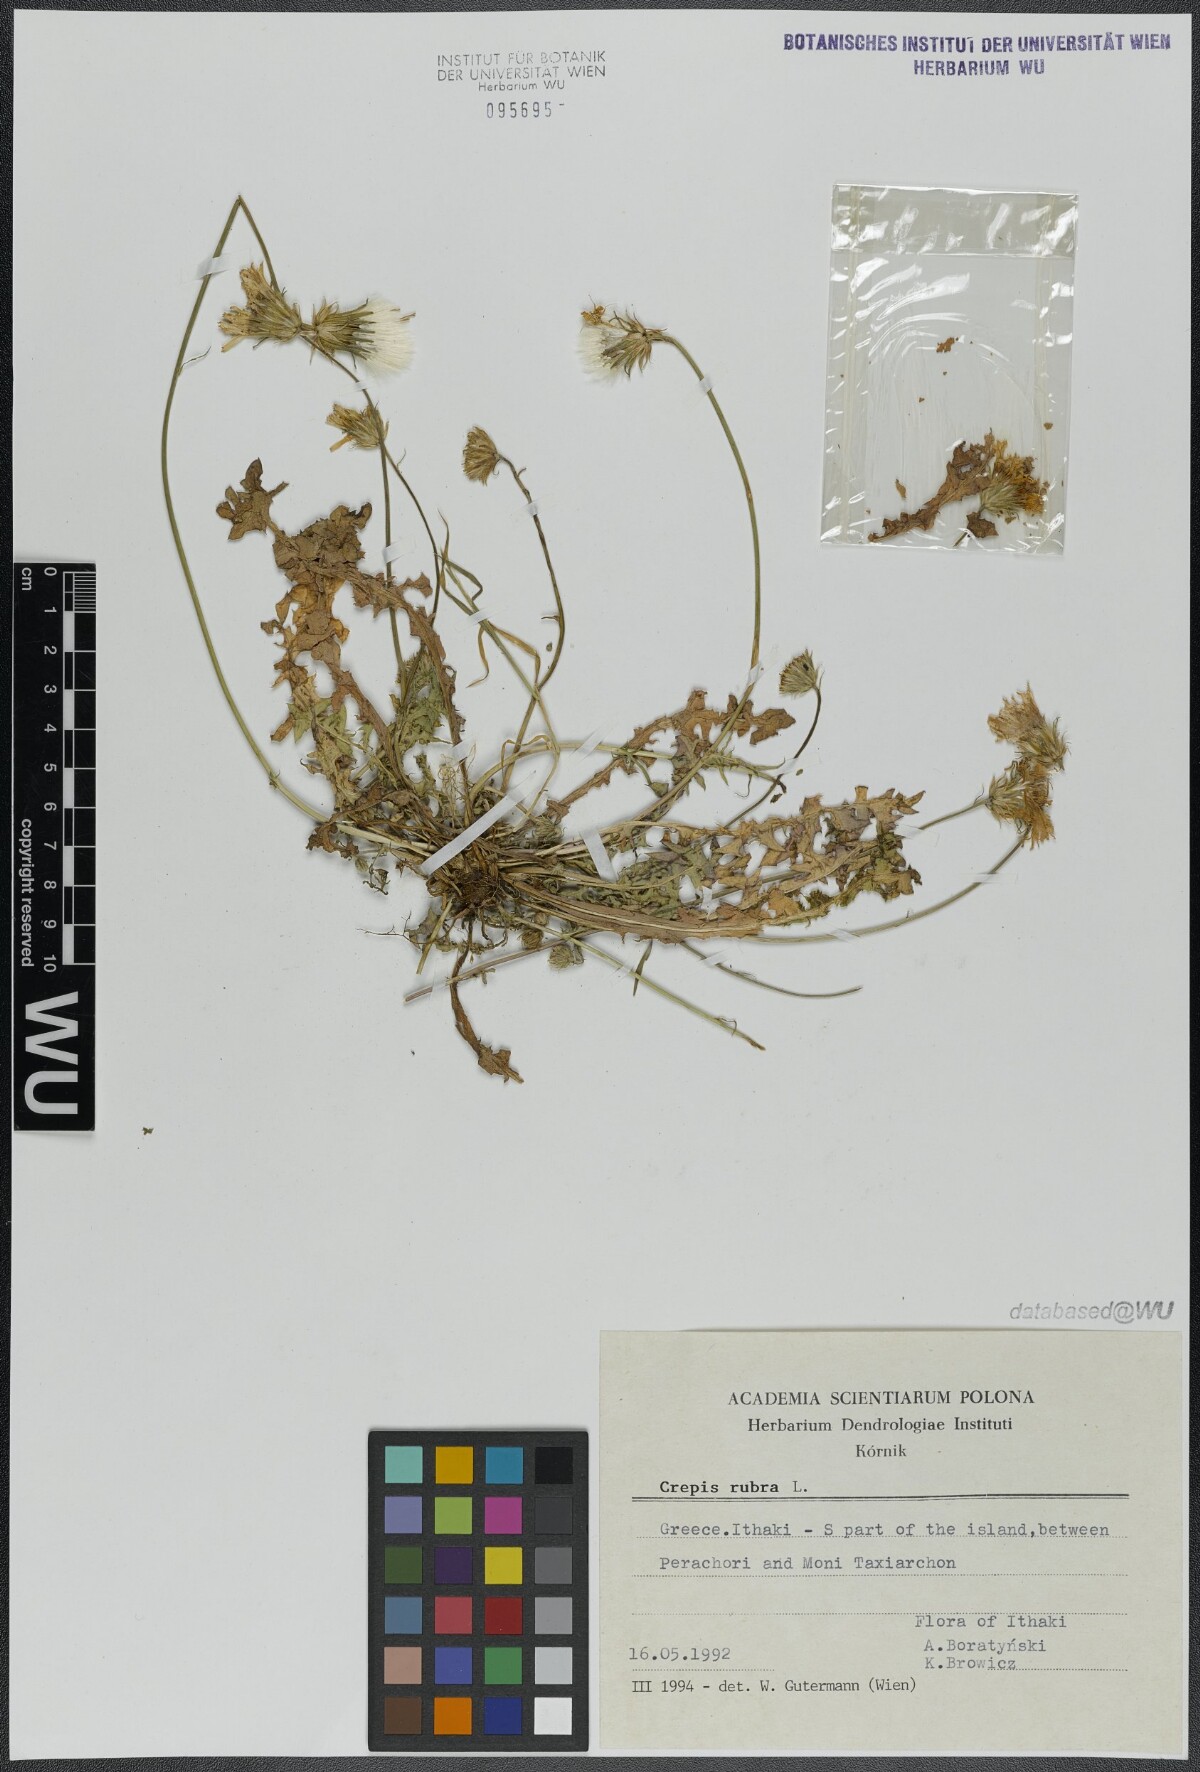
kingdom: Plantae
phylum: Tracheophyta
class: Magnoliopsida
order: Asterales
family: Asteraceae
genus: Crepis
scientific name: Crepis rubra
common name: Pink hawk's-beard
